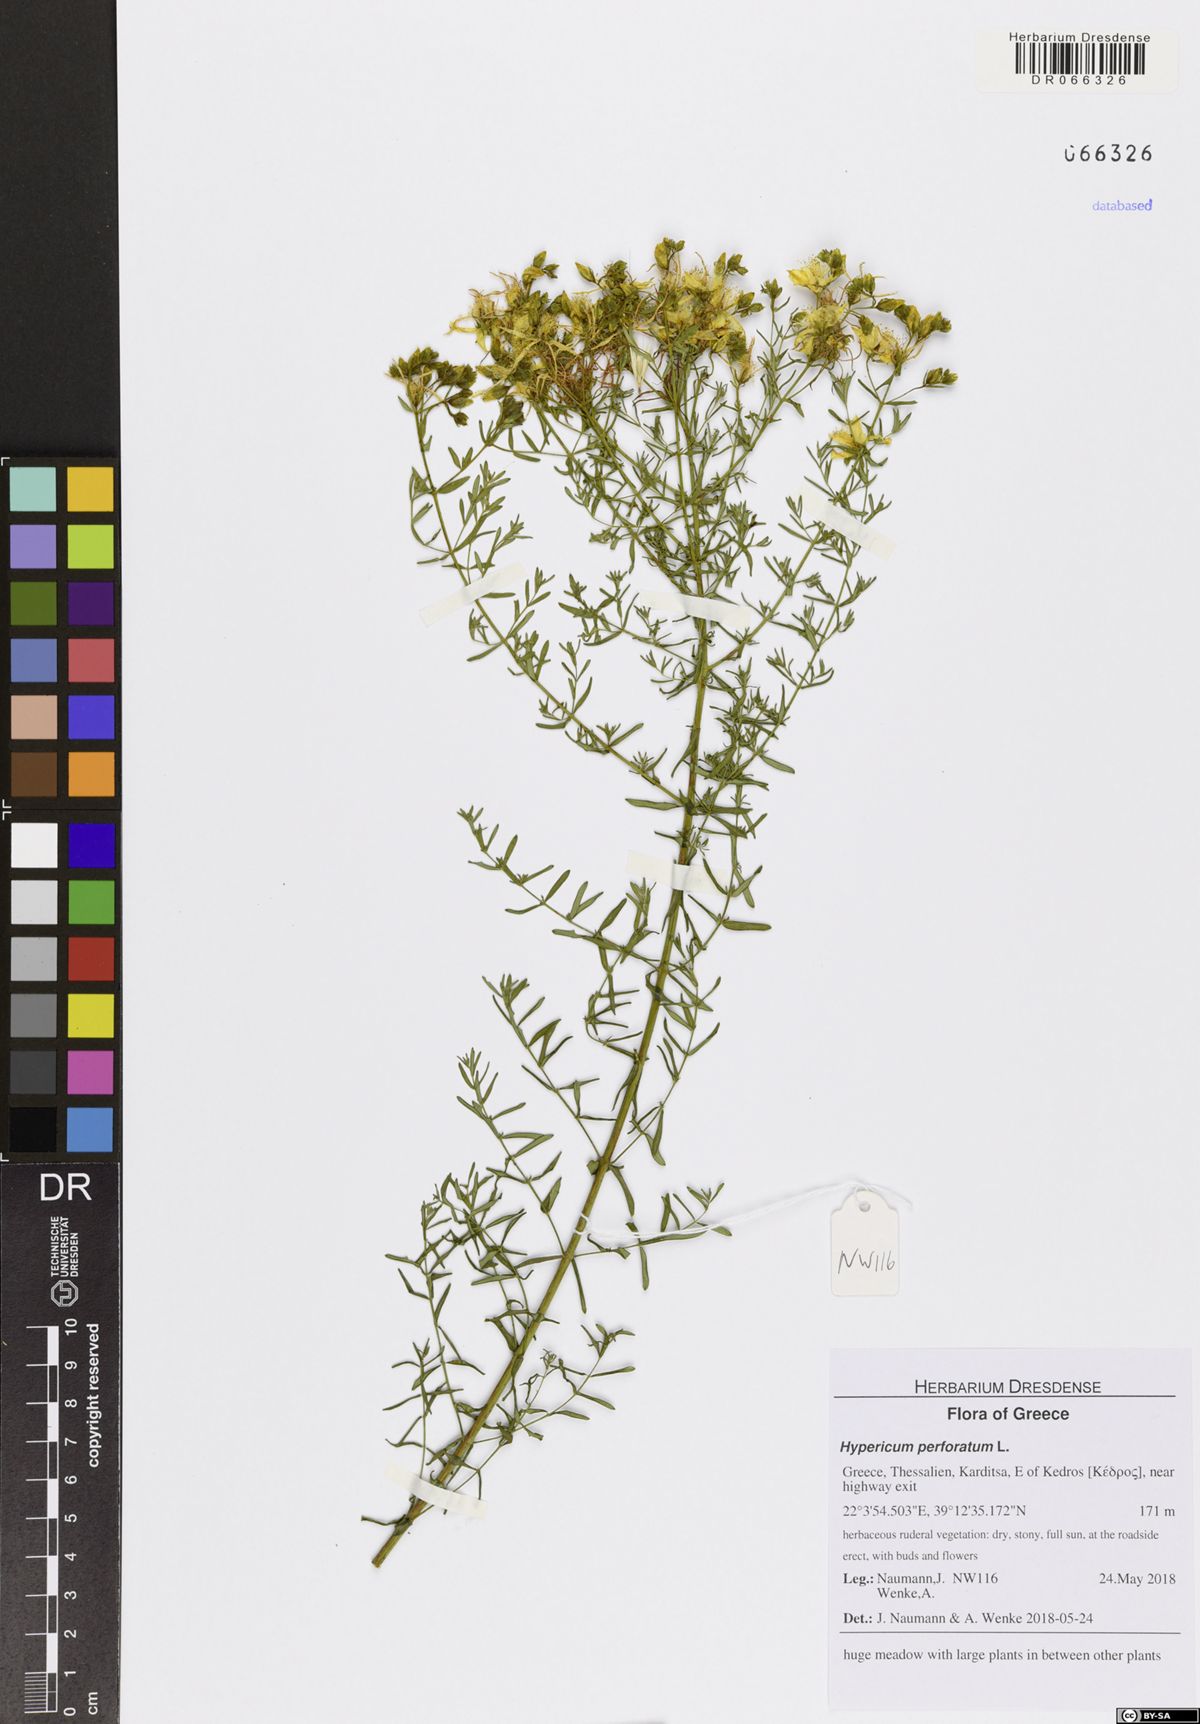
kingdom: Plantae
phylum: Tracheophyta
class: Magnoliopsida
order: Malpighiales
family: Hypericaceae
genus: Hypericum
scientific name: Hypericum perforatum
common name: Common st. johnswort
